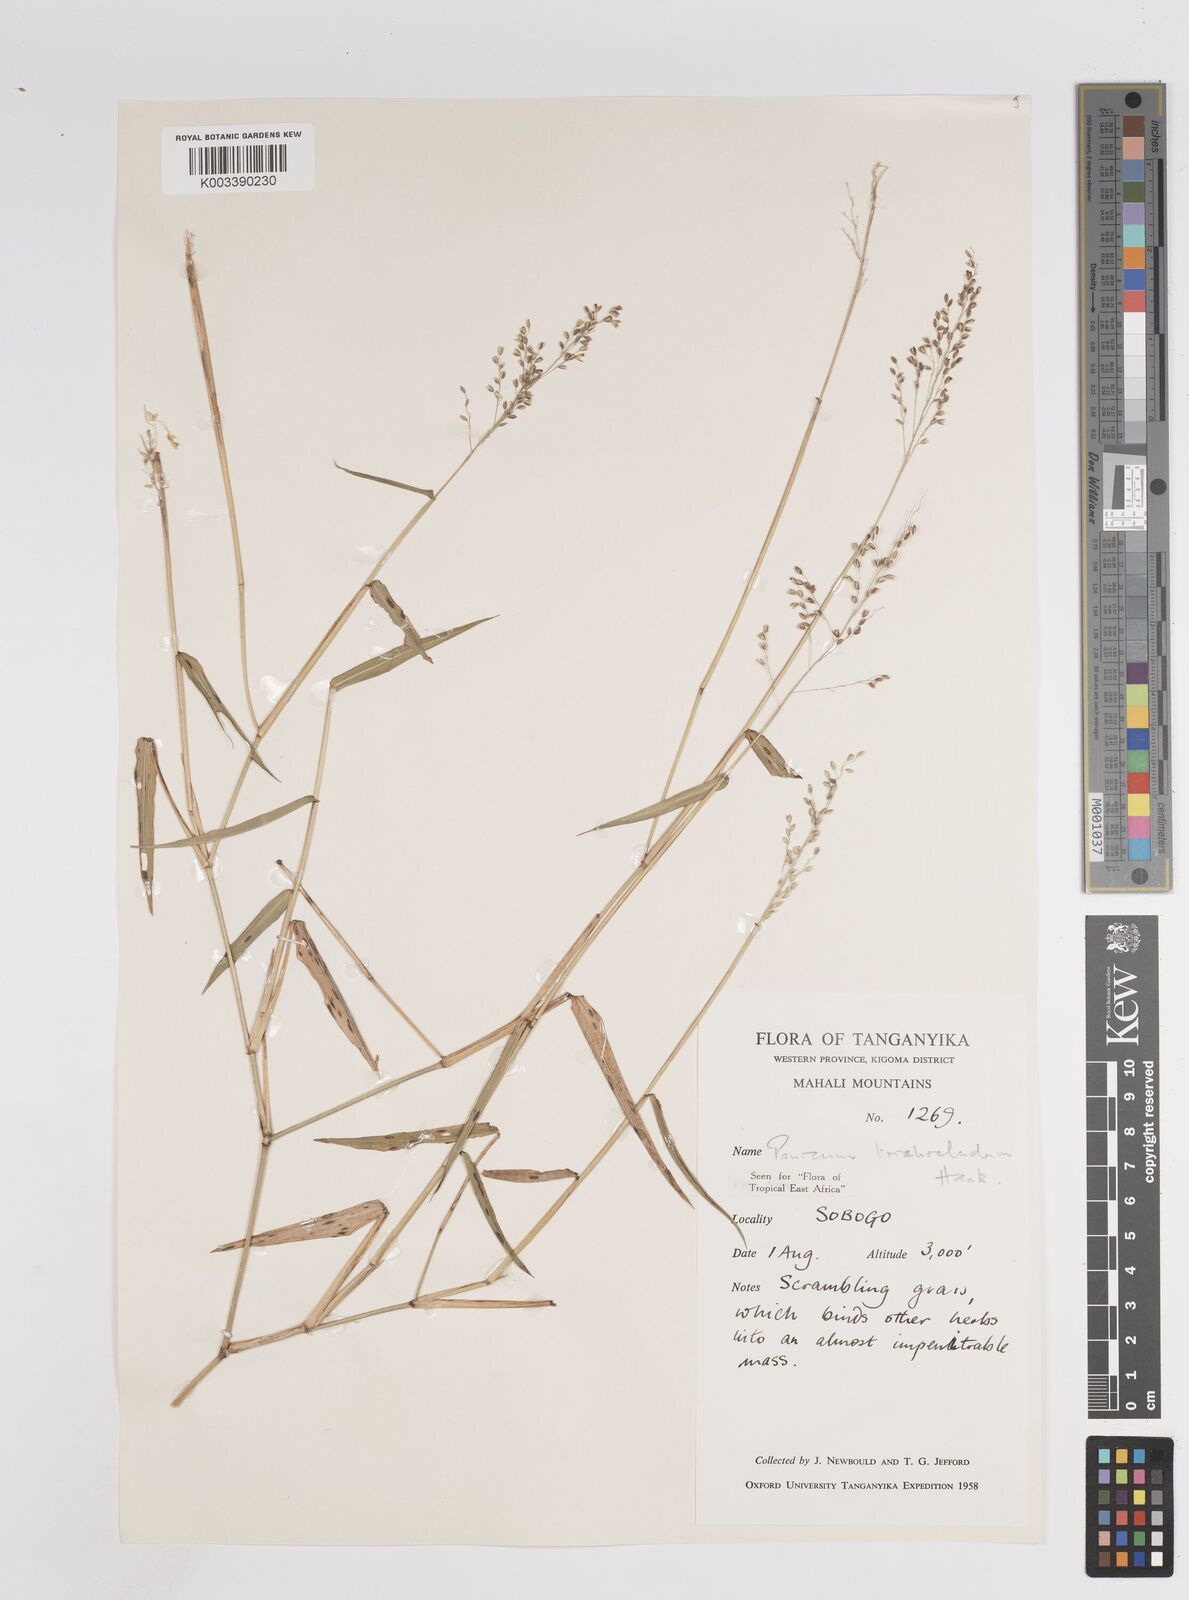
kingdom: Plantae
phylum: Tracheophyta
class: Liliopsida
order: Poales
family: Poaceae
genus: Panicum
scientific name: Panicum trichocladum
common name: Donkey grass
